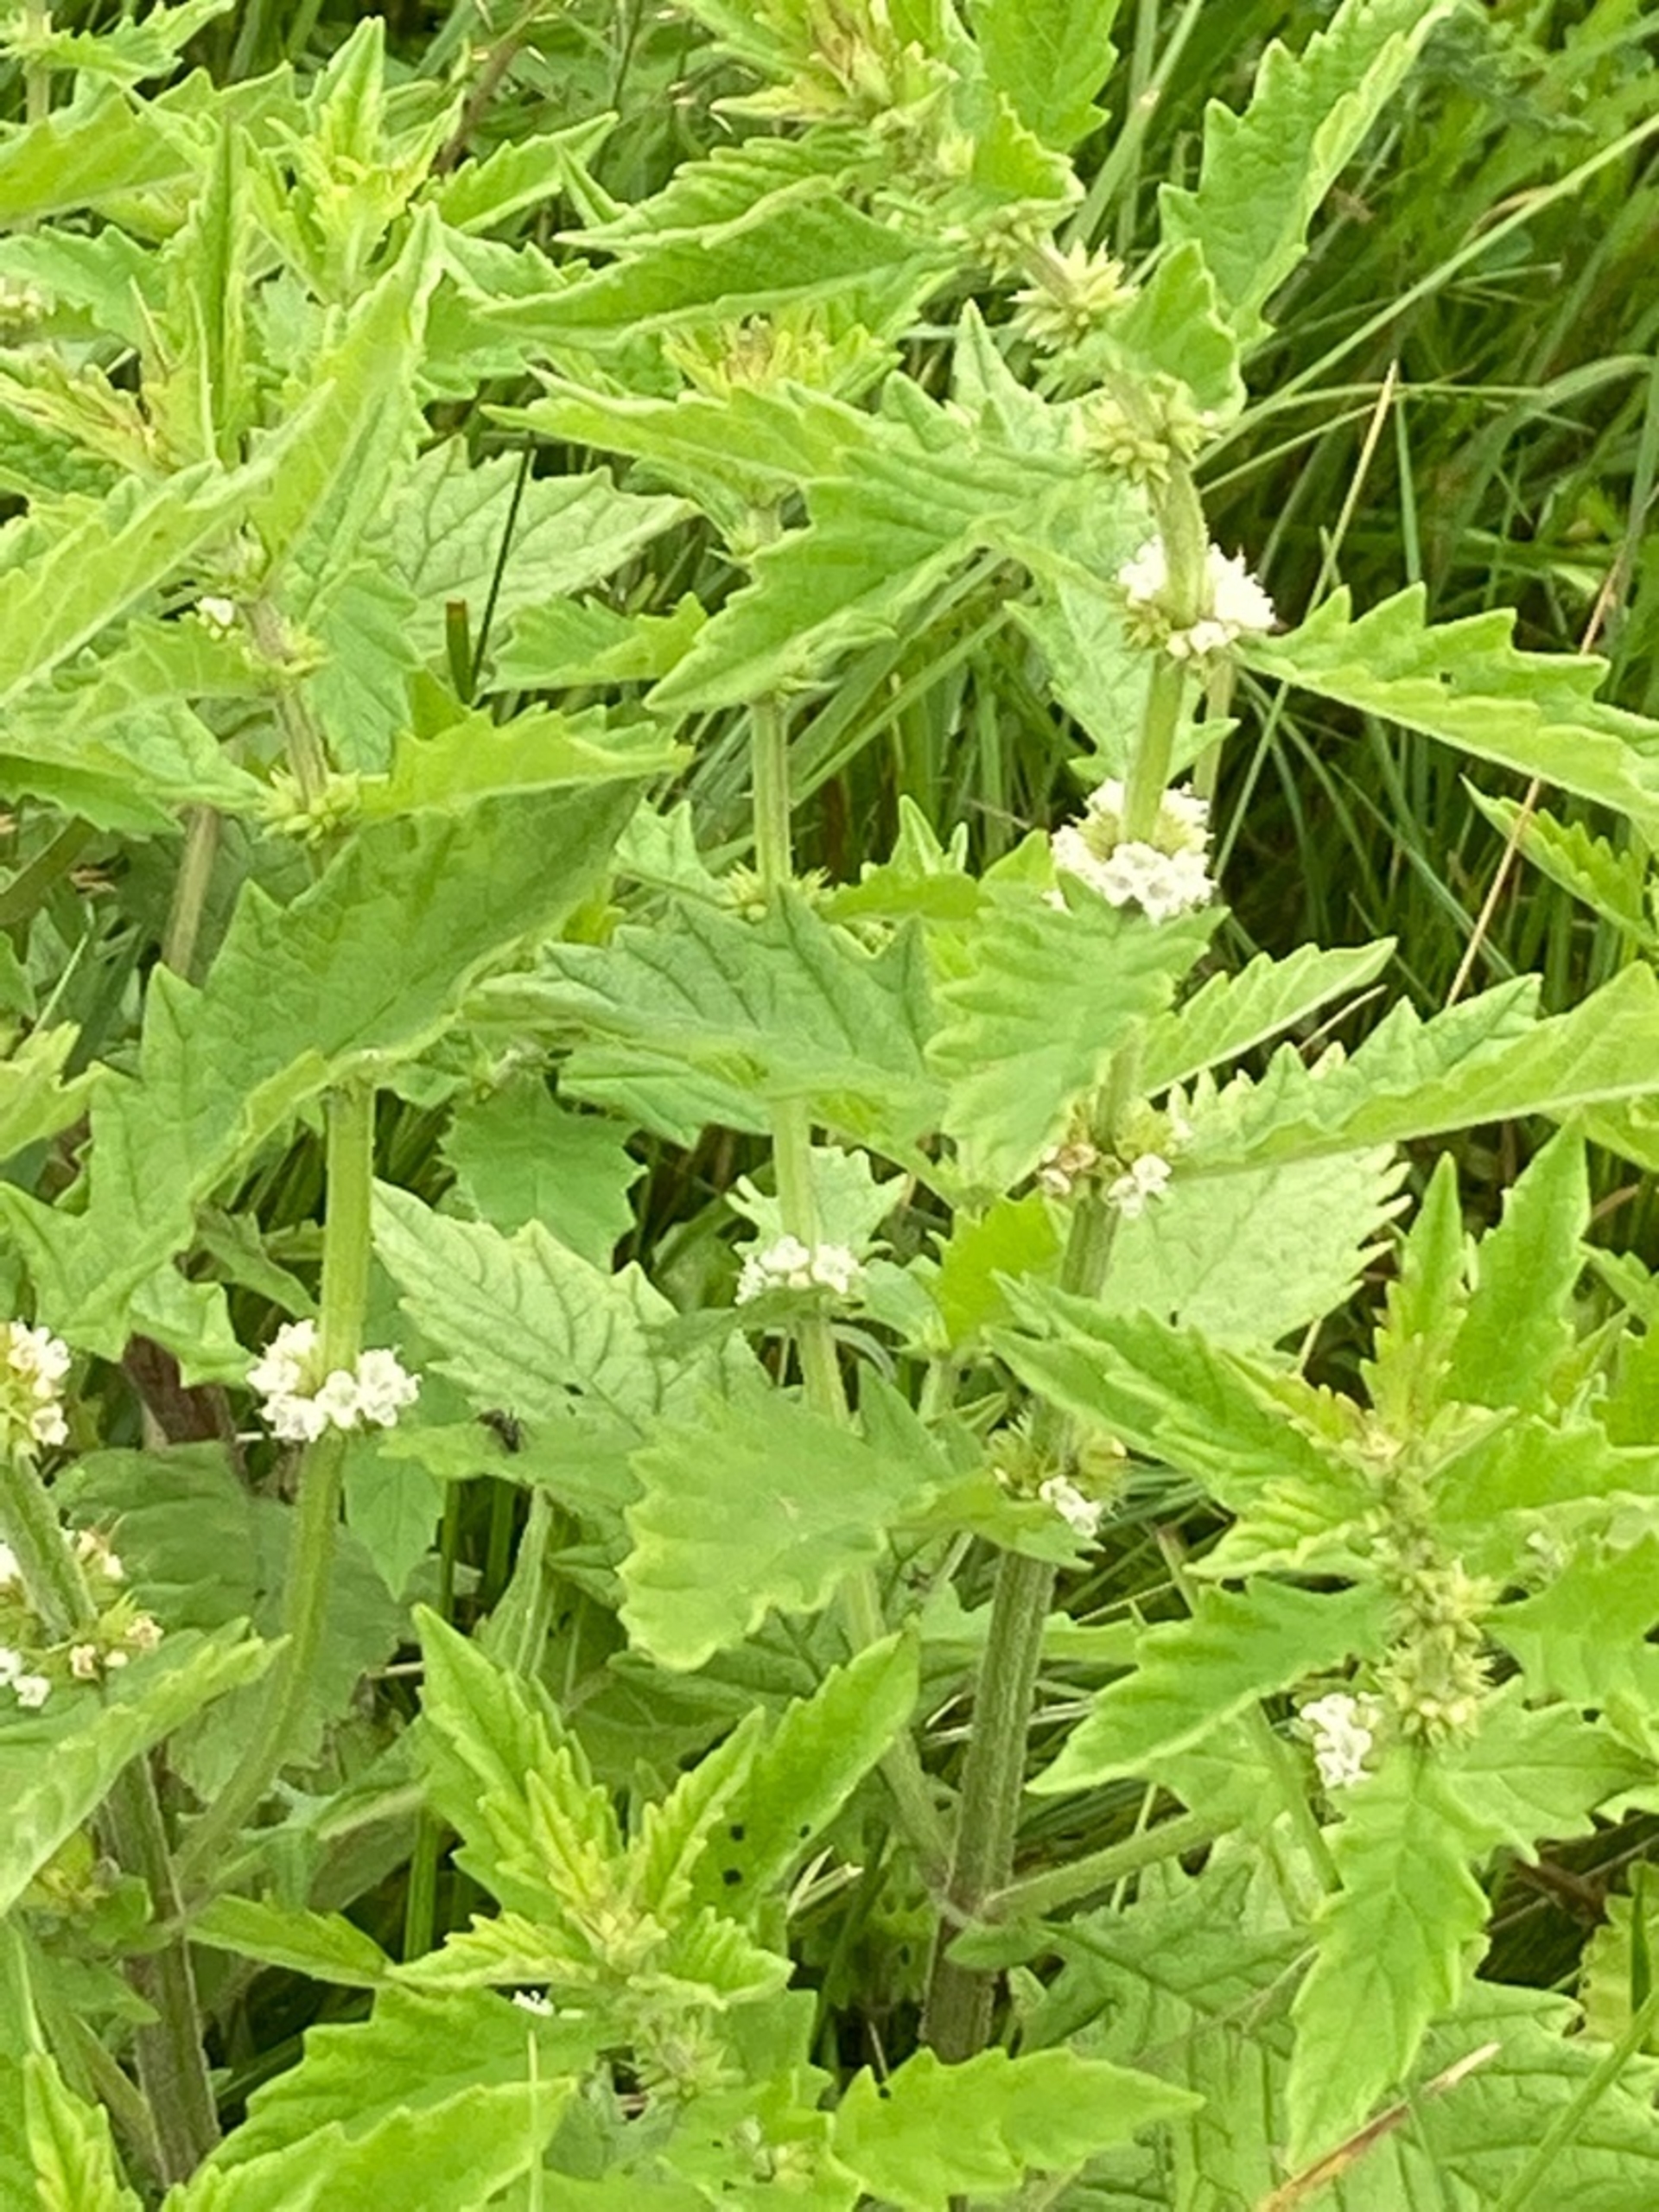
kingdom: Plantae
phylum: Tracheophyta
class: Magnoliopsida
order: Lamiales
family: Lamiaceae
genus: Lycopus
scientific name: Lycopus europaeus
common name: Sværtevæld
